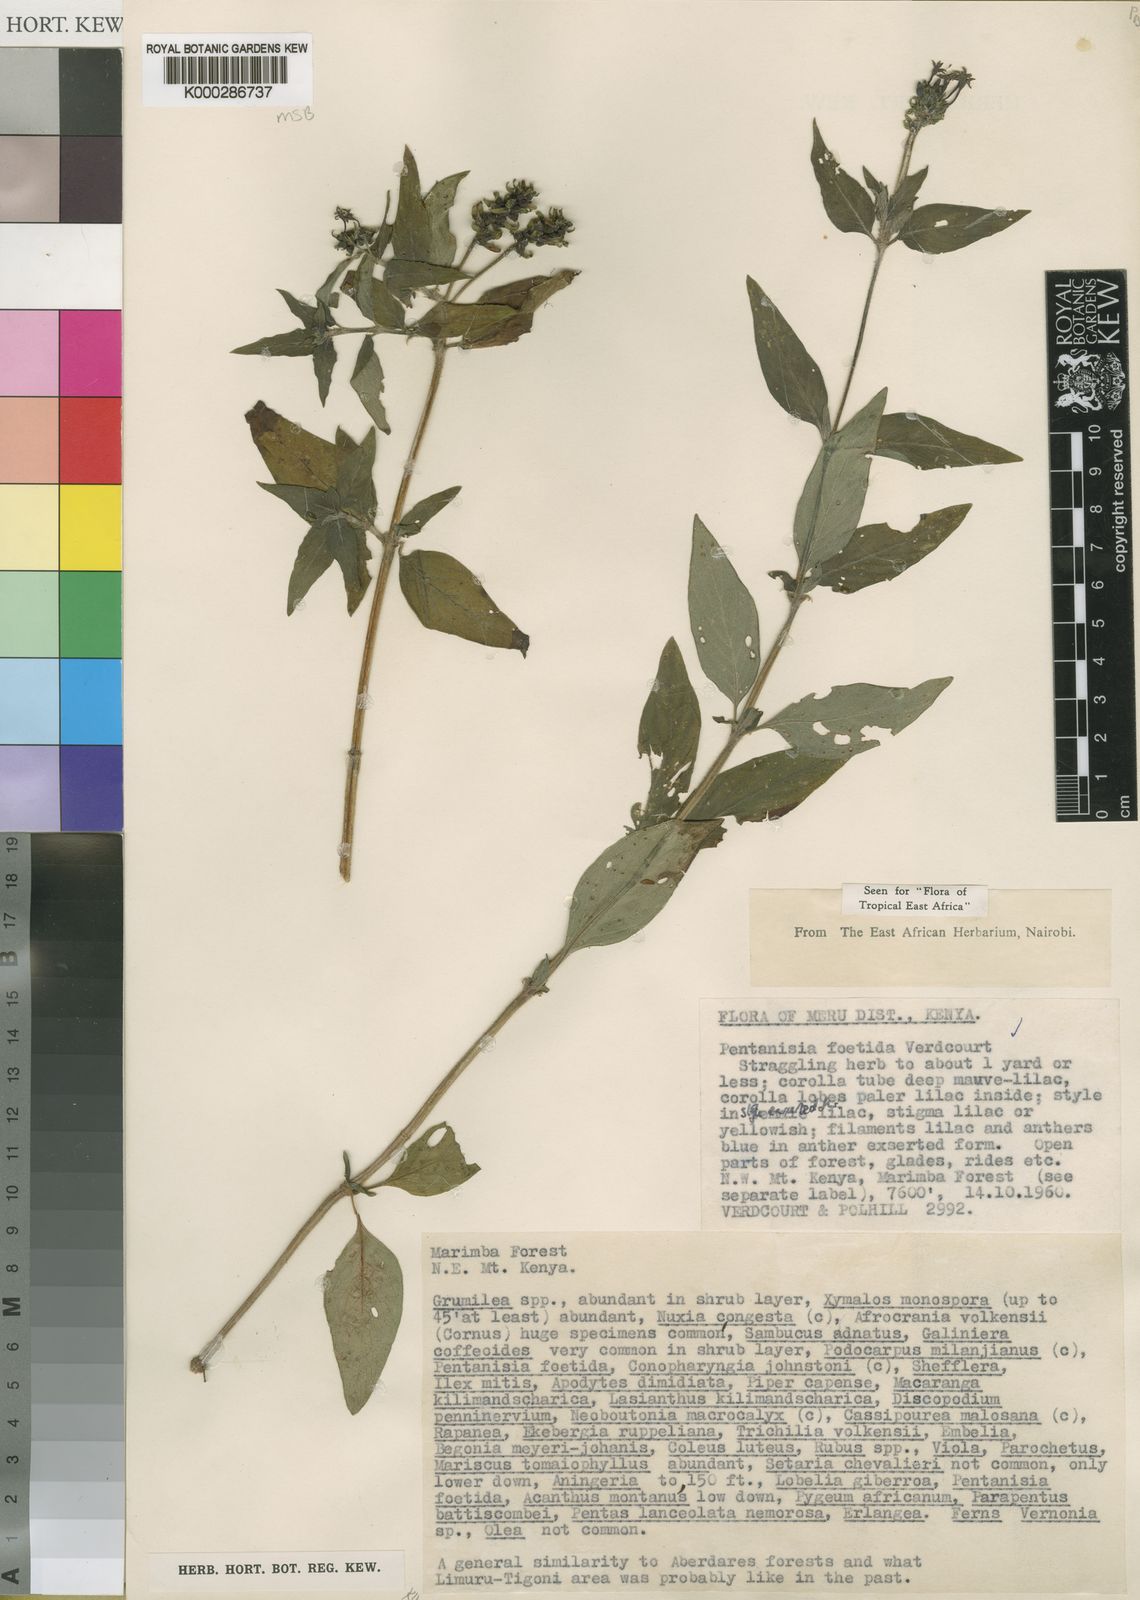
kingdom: Plantae
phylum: Tracheophyta
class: Magnoliopsida
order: Gentianales
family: Rubiaceae
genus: Pentanisia
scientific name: Pentanisia foetida
